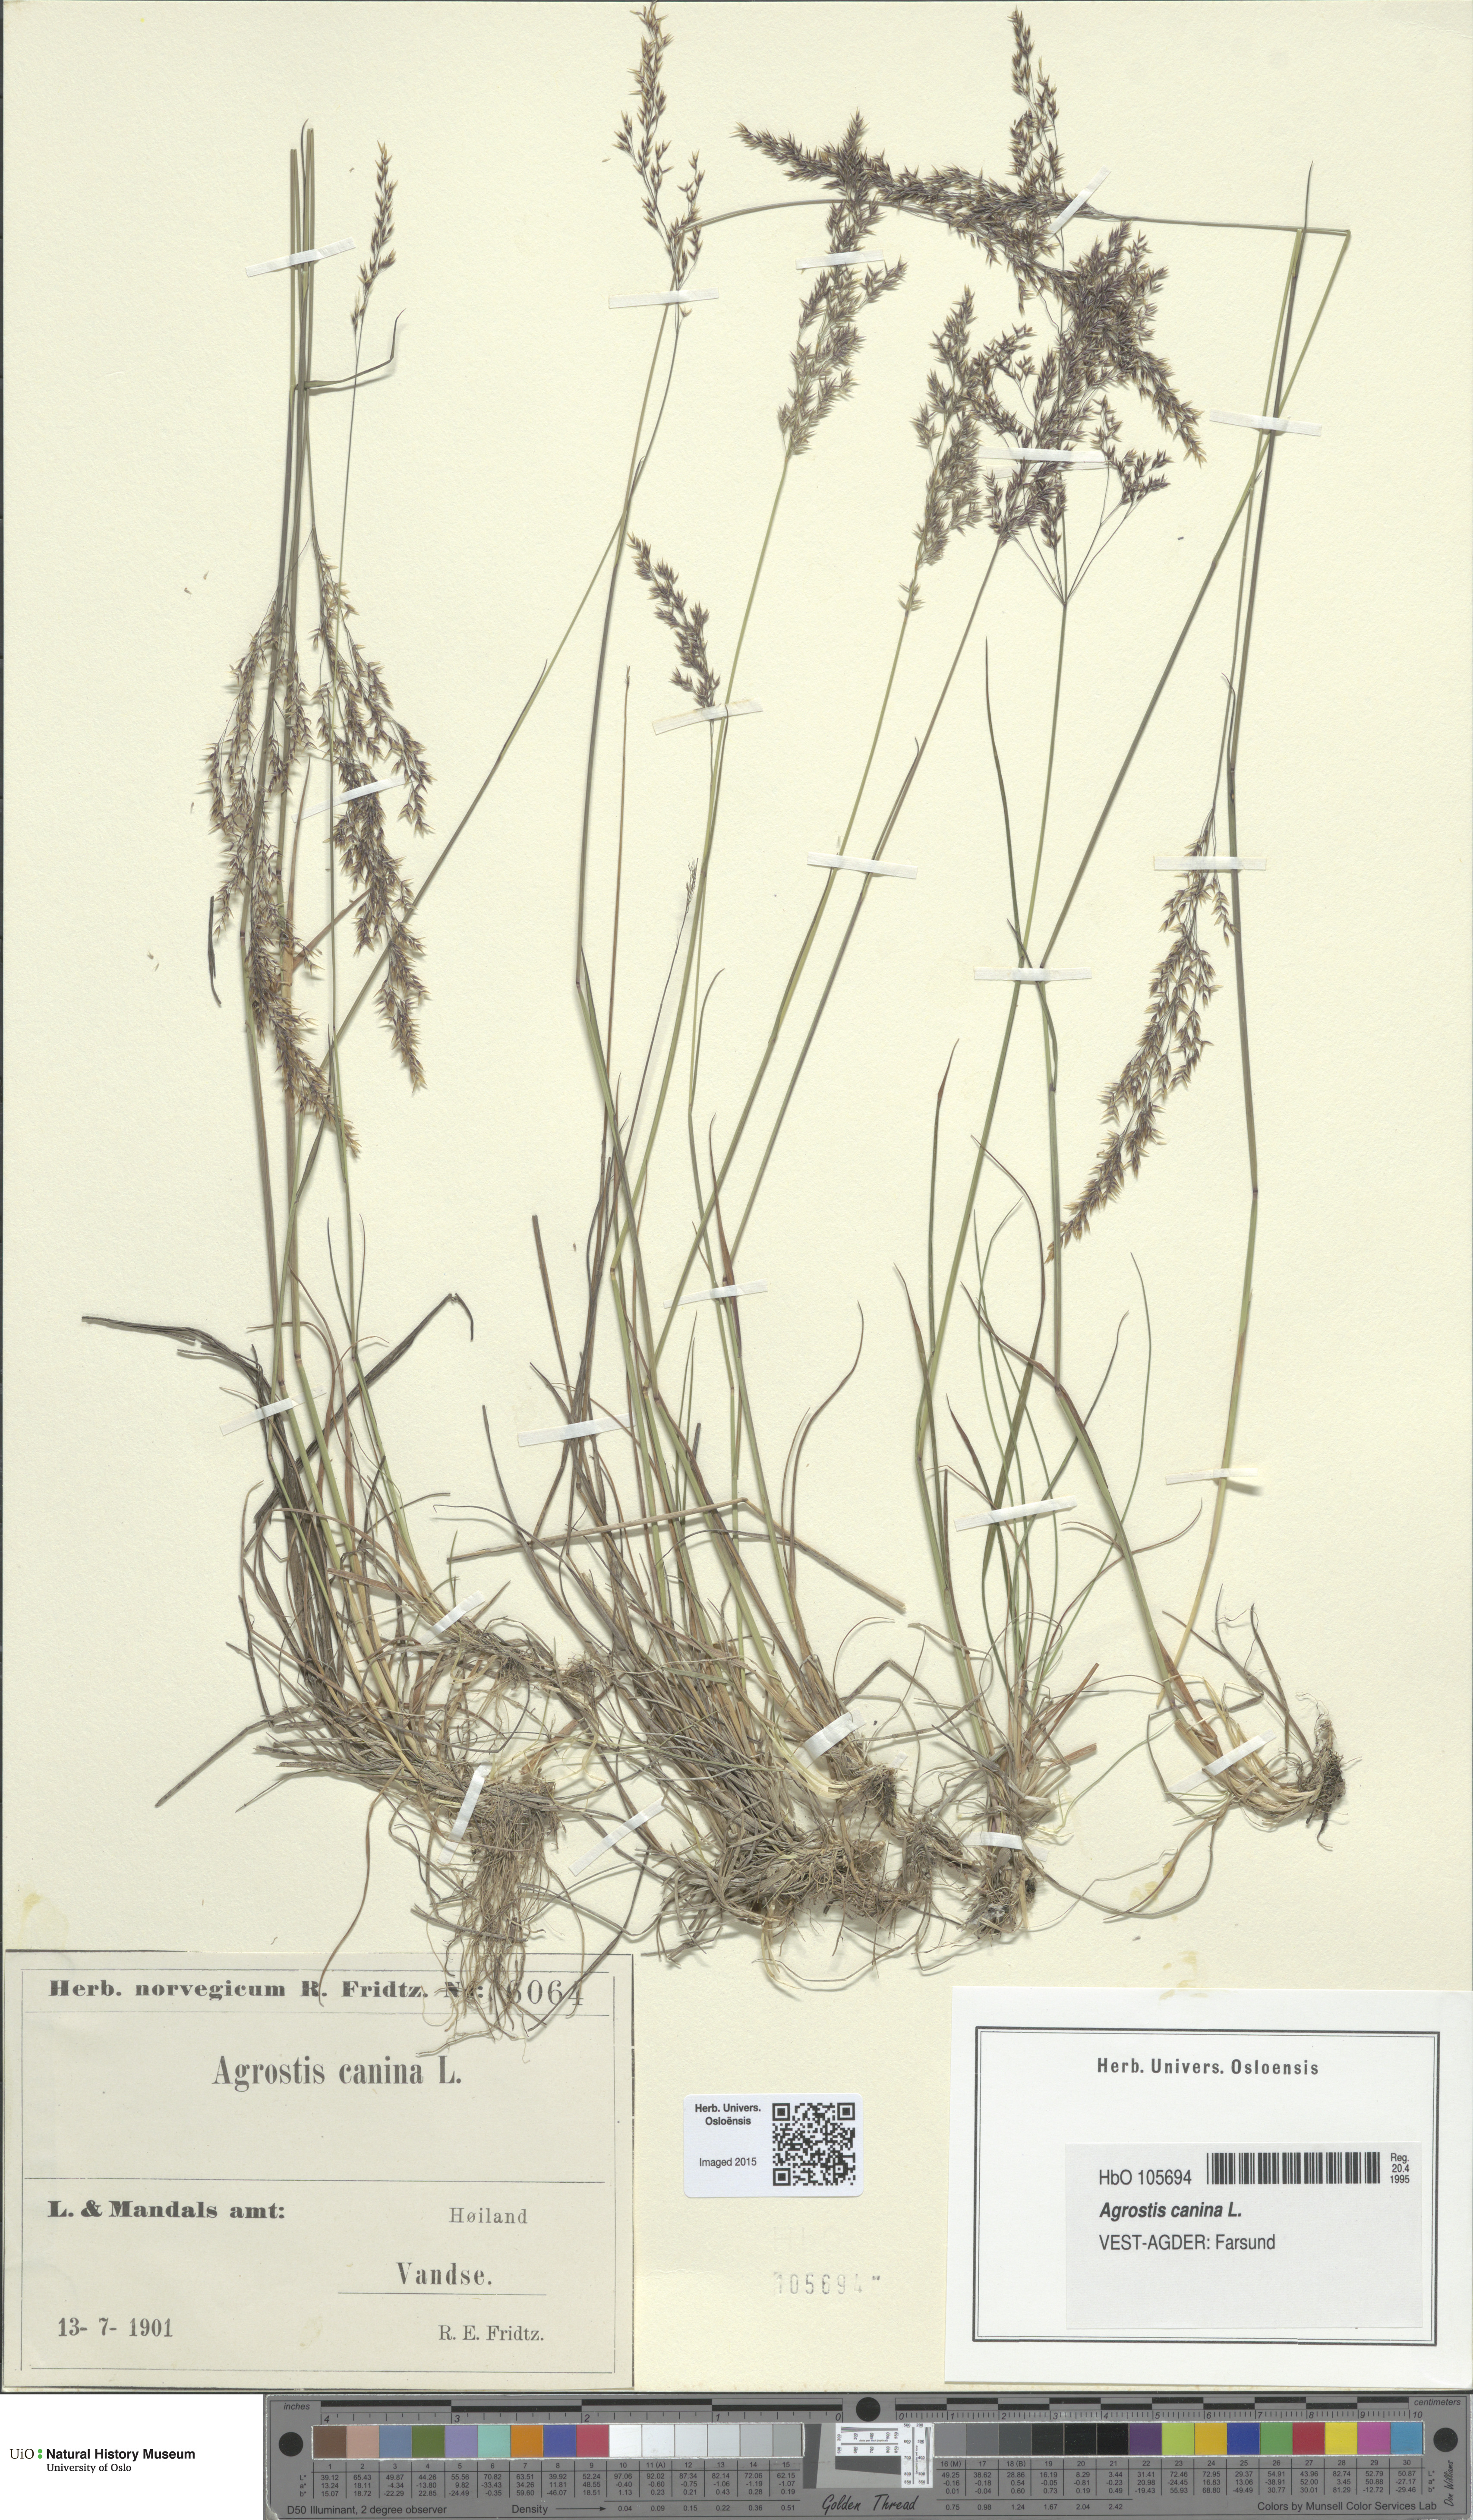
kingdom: Plantae
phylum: Tracheophyta
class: Liliopsida
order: Poales
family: Poaceae
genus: Agrostis
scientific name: Agrostis canina
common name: Velvet bent
